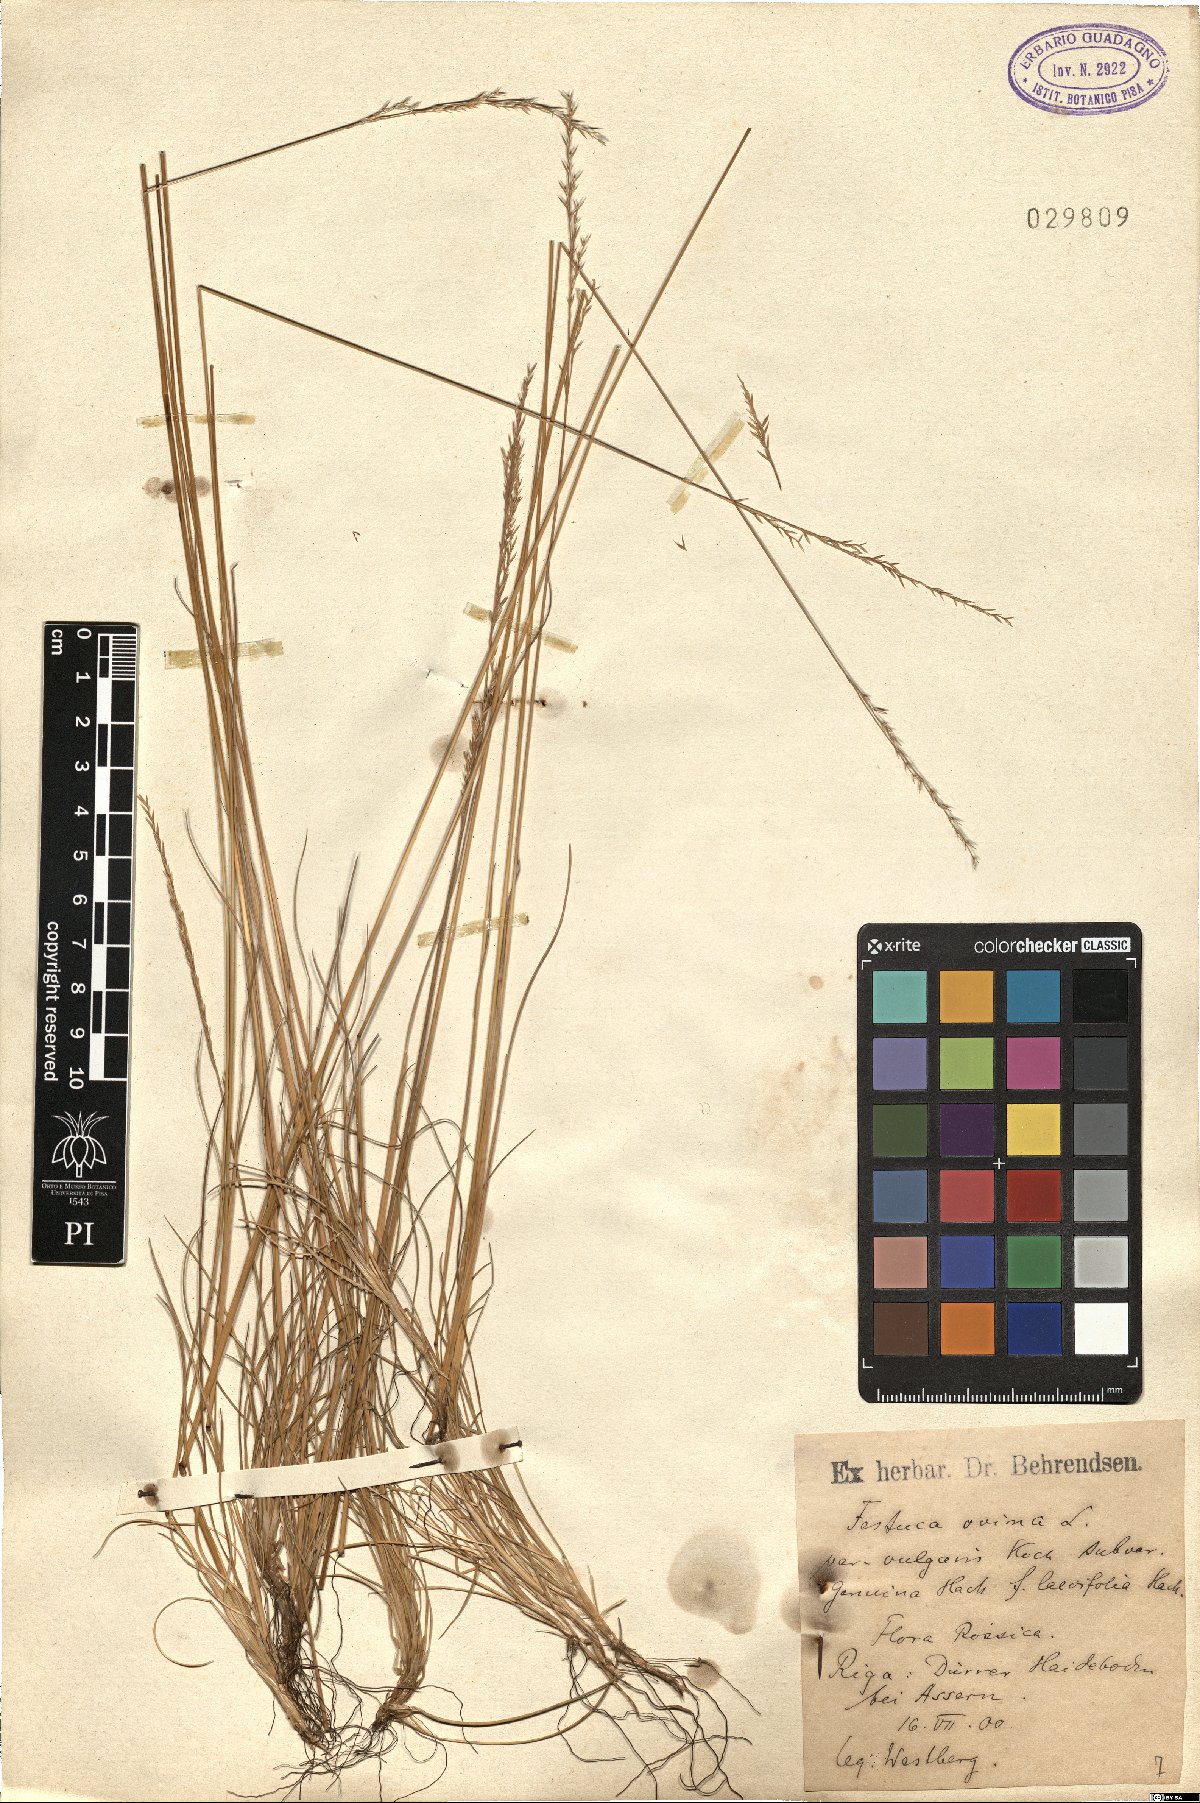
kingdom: Plantae
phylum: Tracheophyta
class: Liliopsida
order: Poales
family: Poaceae
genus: Festuca
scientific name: Festuca ovina
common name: Sheep fescue
